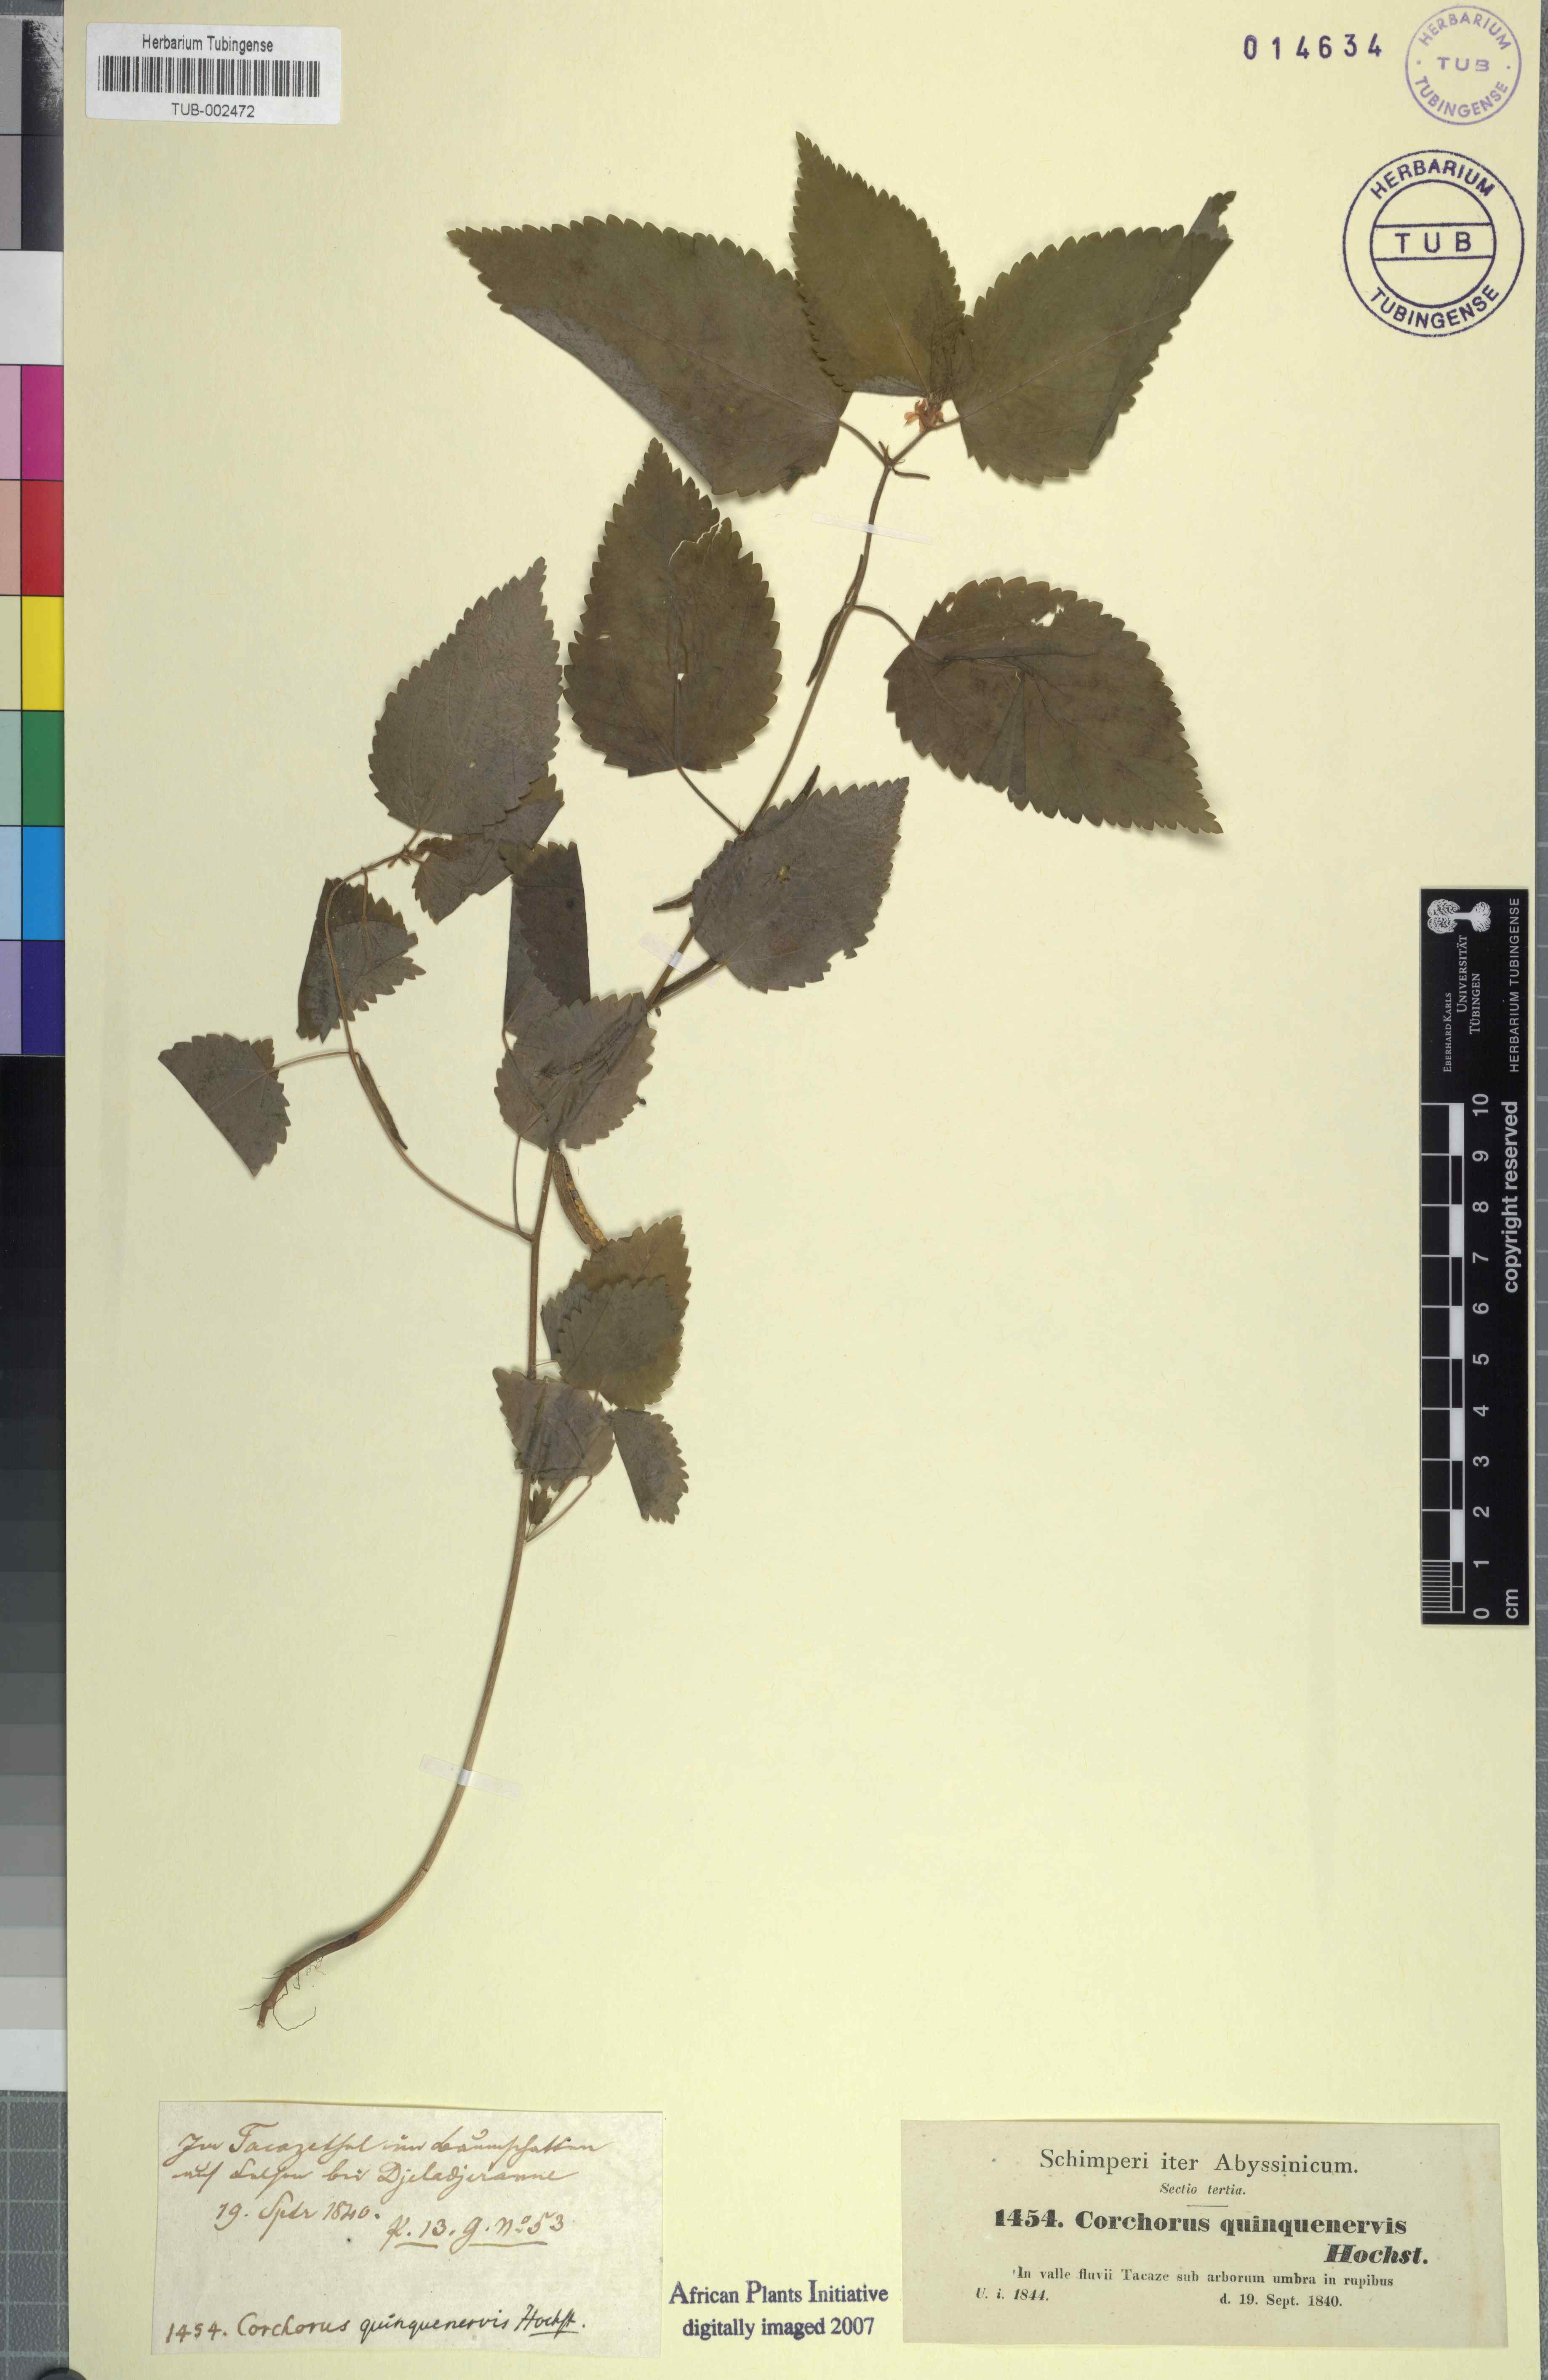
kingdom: Plantae
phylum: Tracheophyta
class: Magnoliopsida
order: Malvales
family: Malvaceae
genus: Corchorus
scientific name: Corchorus urticifolius
